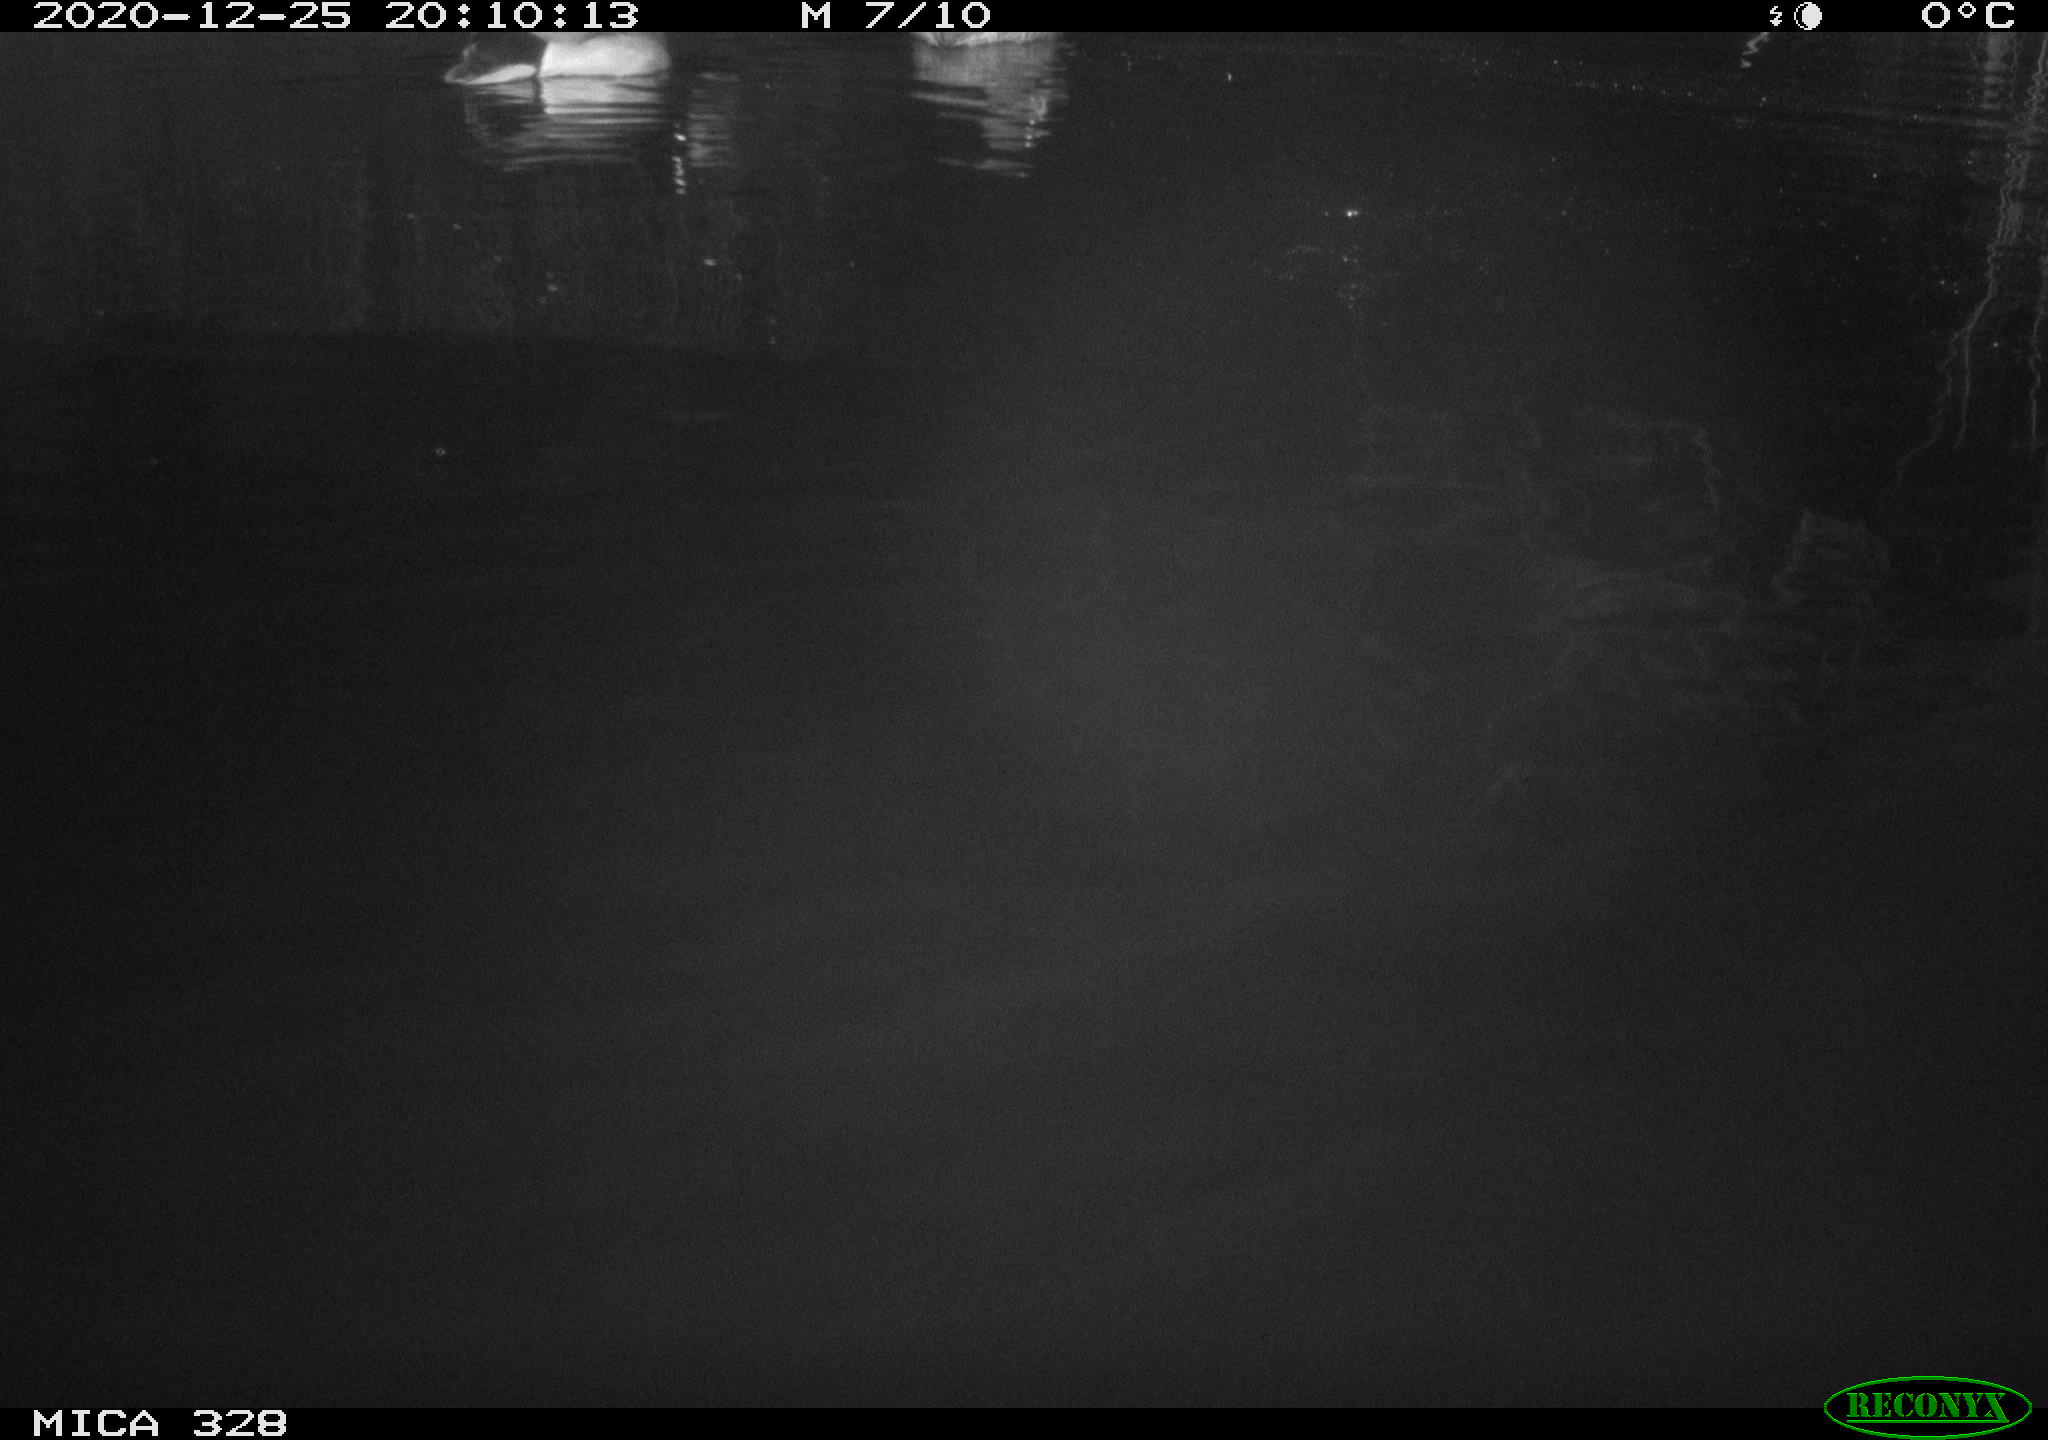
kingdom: Animalia
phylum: Chordata
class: Aves
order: Anseriformes
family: Anatidae
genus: Anas
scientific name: Anas platyrhynchos
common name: Mallard
